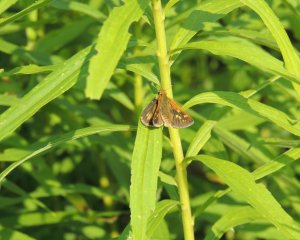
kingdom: Animalia
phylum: Arthropoda
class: Insecta
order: Lepidoptera
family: Hesperiidae
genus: Polites
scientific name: Polites
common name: Long Dash Skipper
